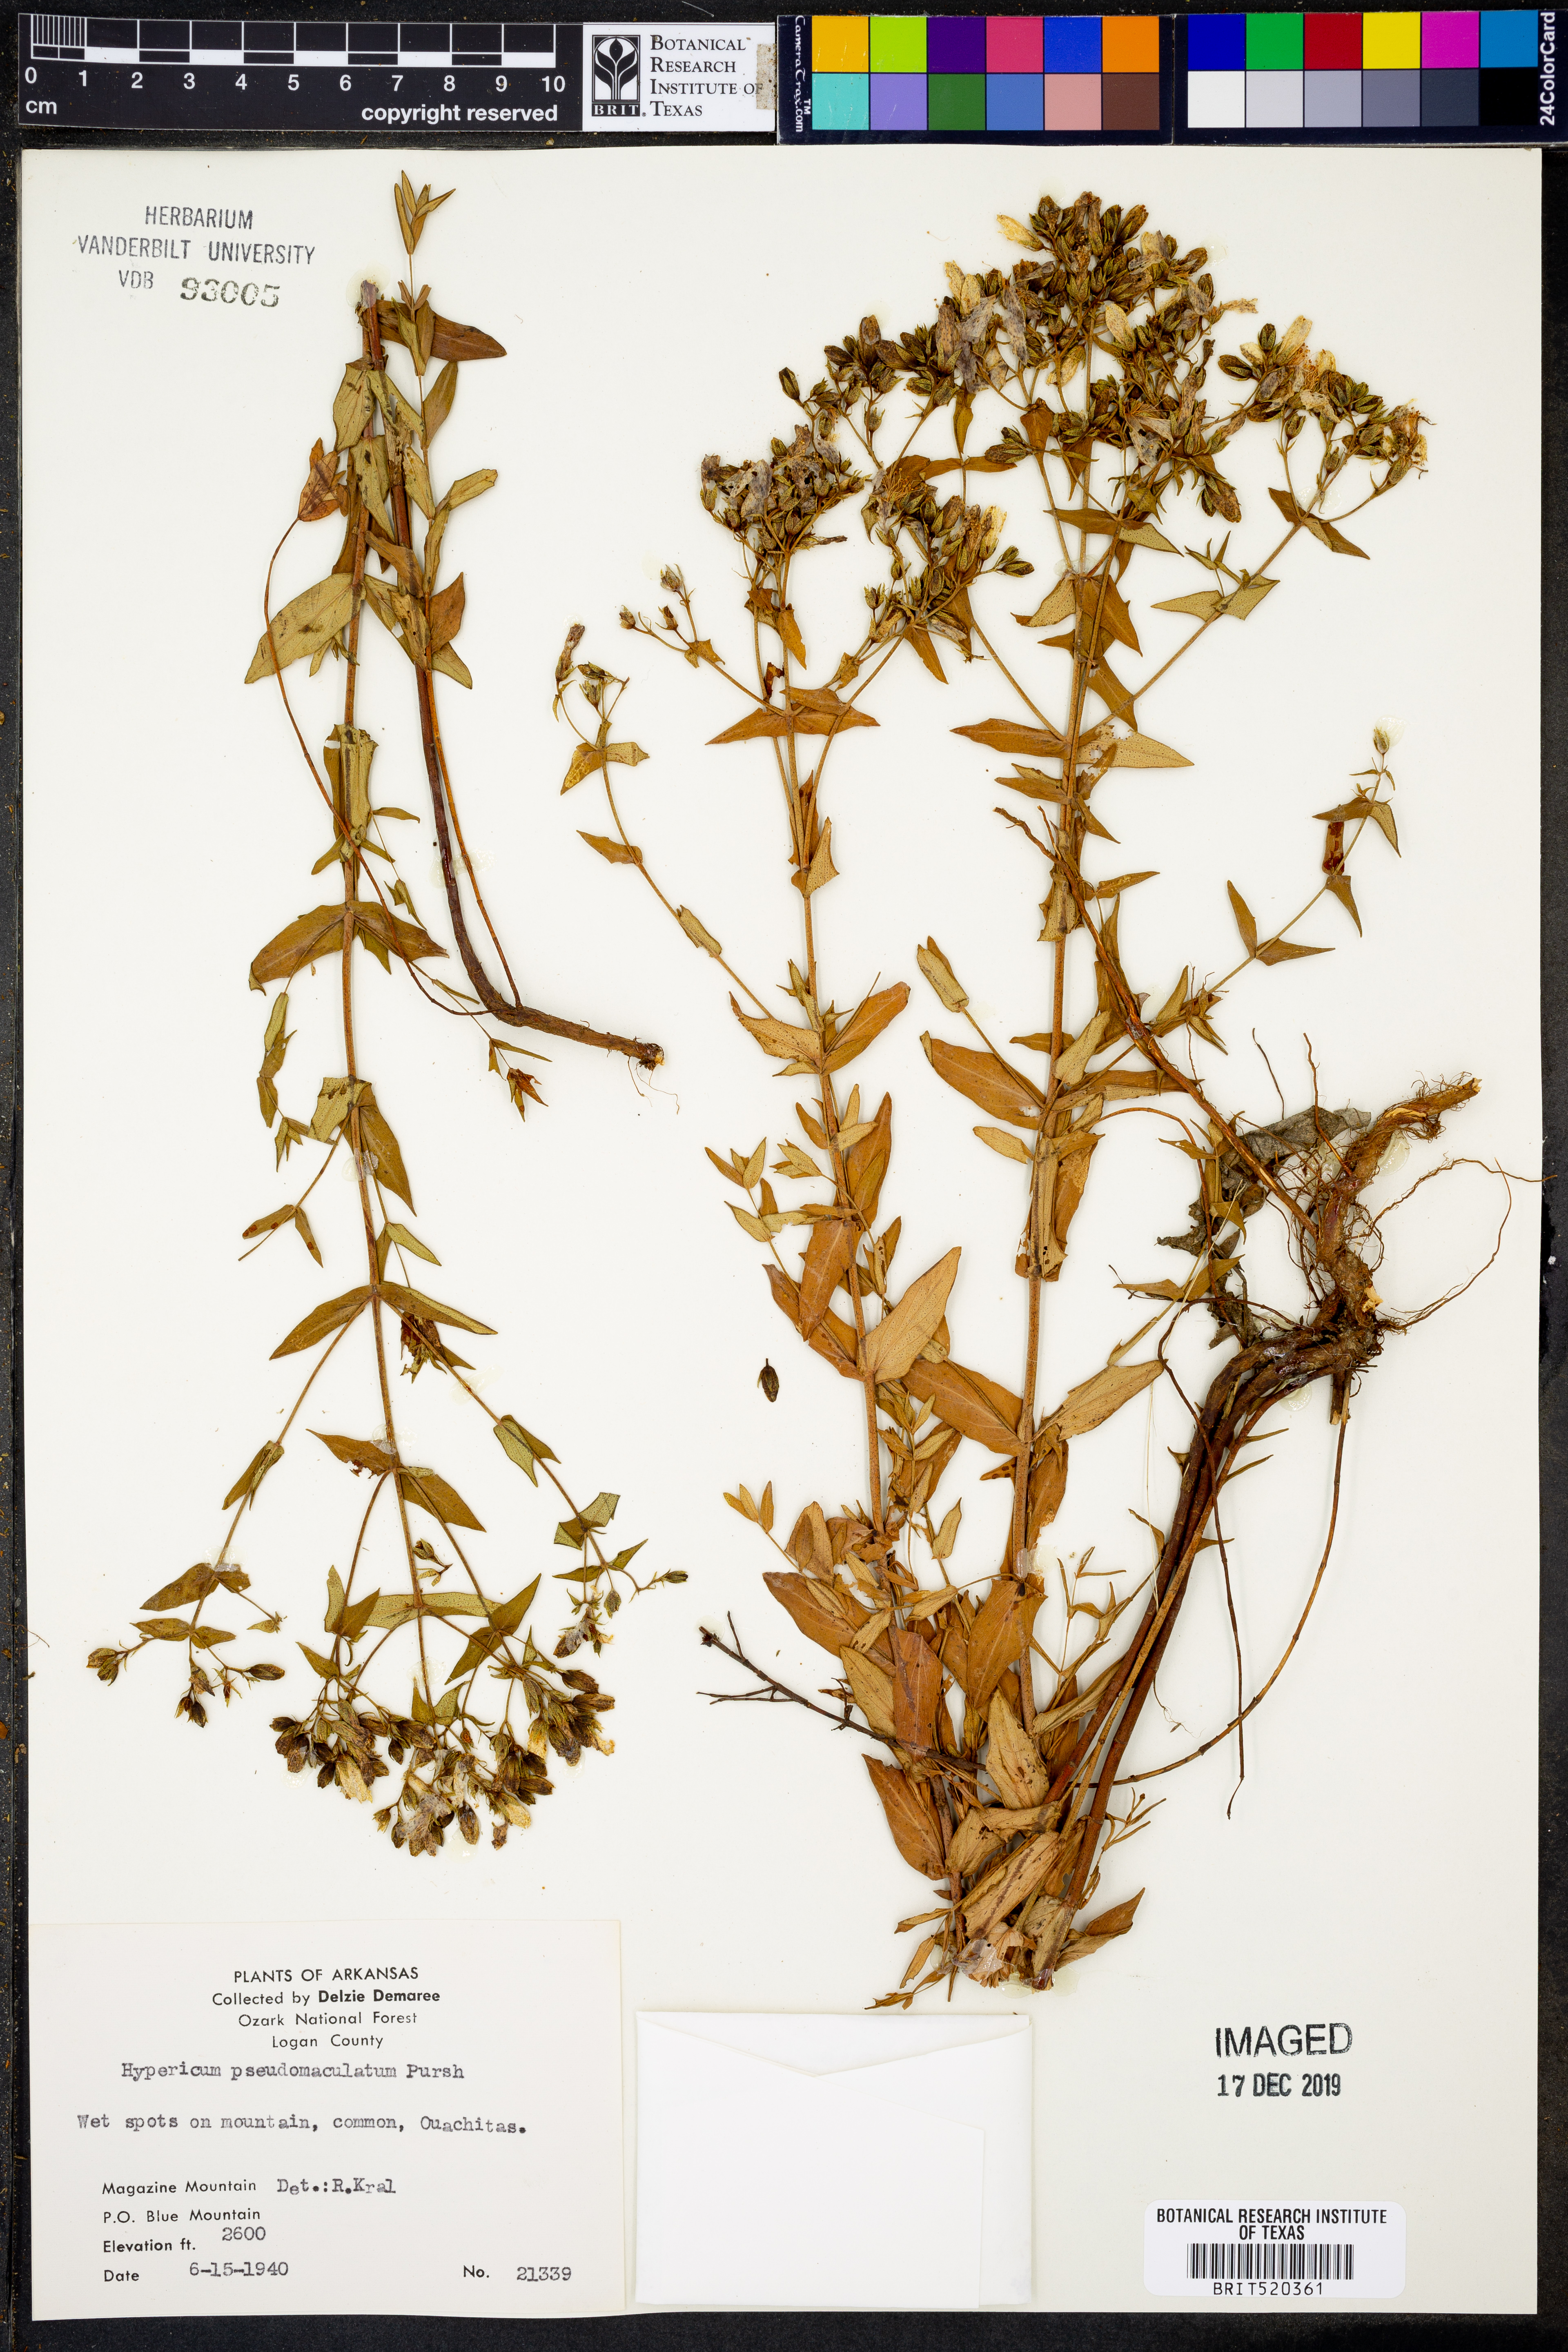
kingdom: Plantae
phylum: Tracheophyta
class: Magnoliopsida
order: Malpighiales
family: Hypericaceae
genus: Hypericum
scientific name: Hypericum pseudomaculatum
